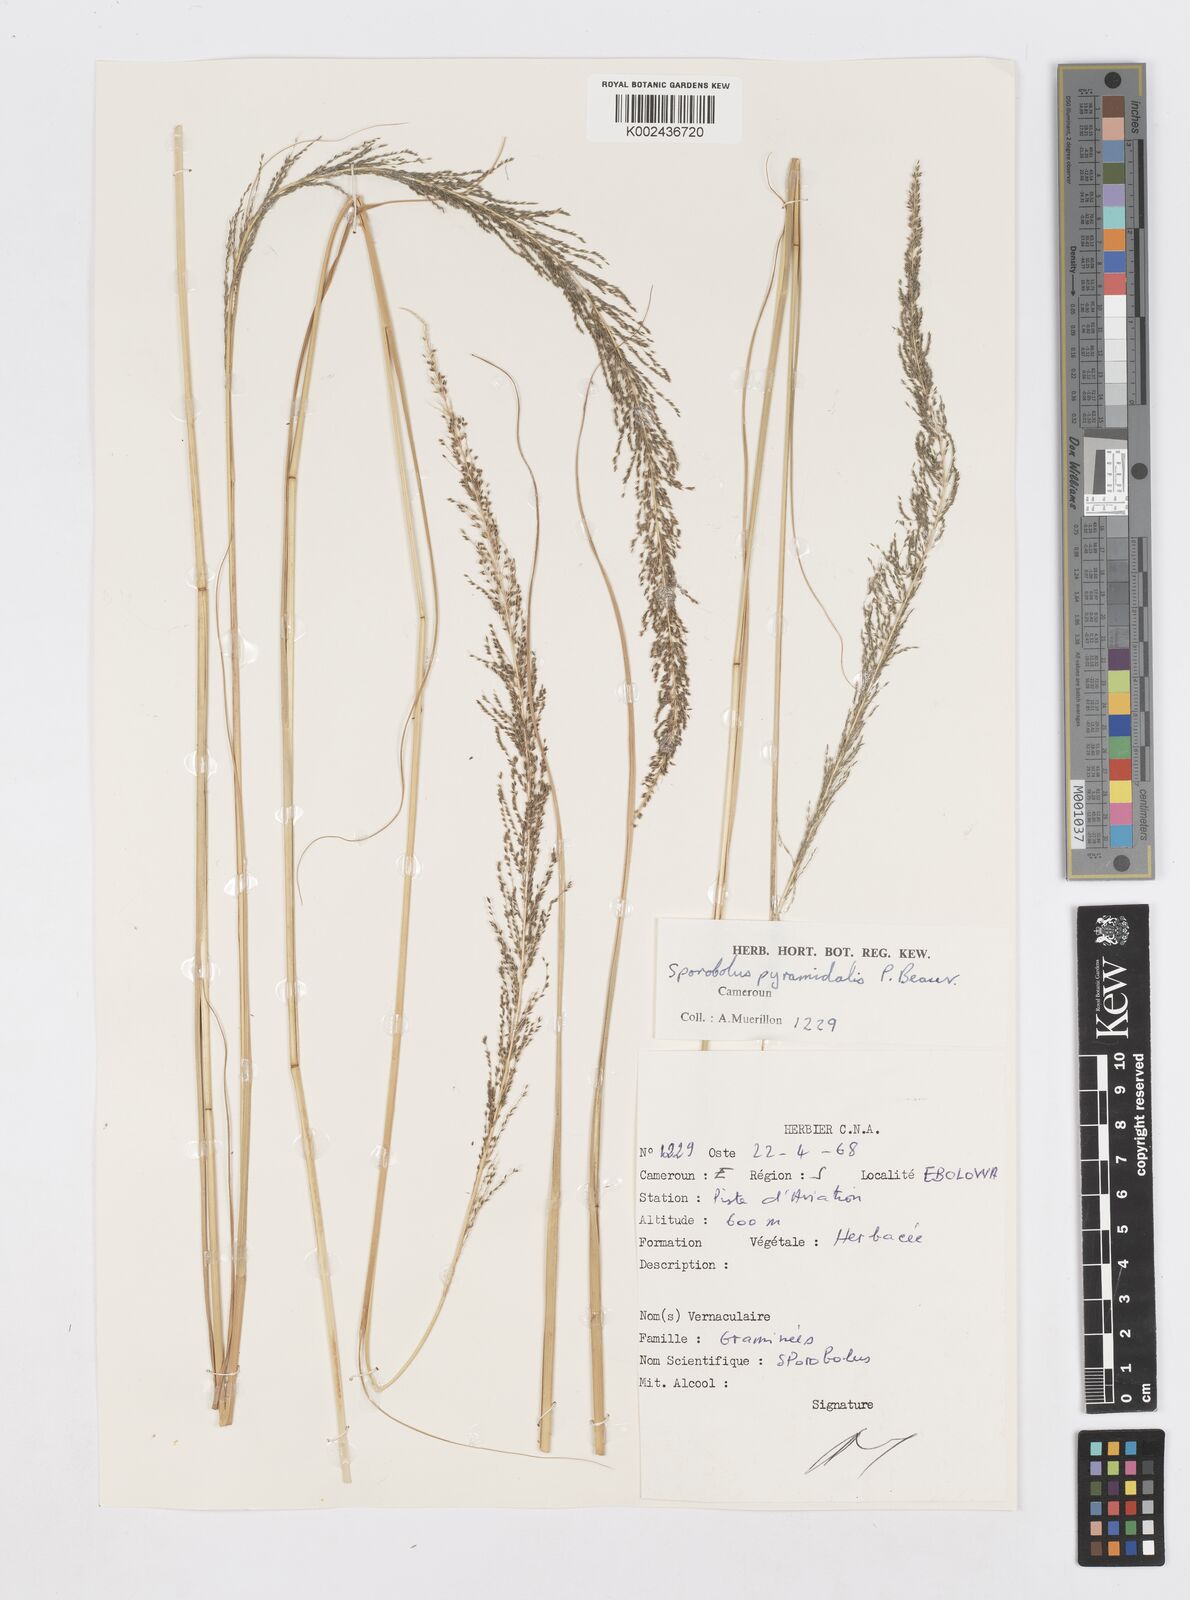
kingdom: Plantae
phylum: Tracheophyta
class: Liliopsida
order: Poales
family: Poaceae
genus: Sporobolus
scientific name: Sporobolus pyramidalis
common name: West indian dropseed
